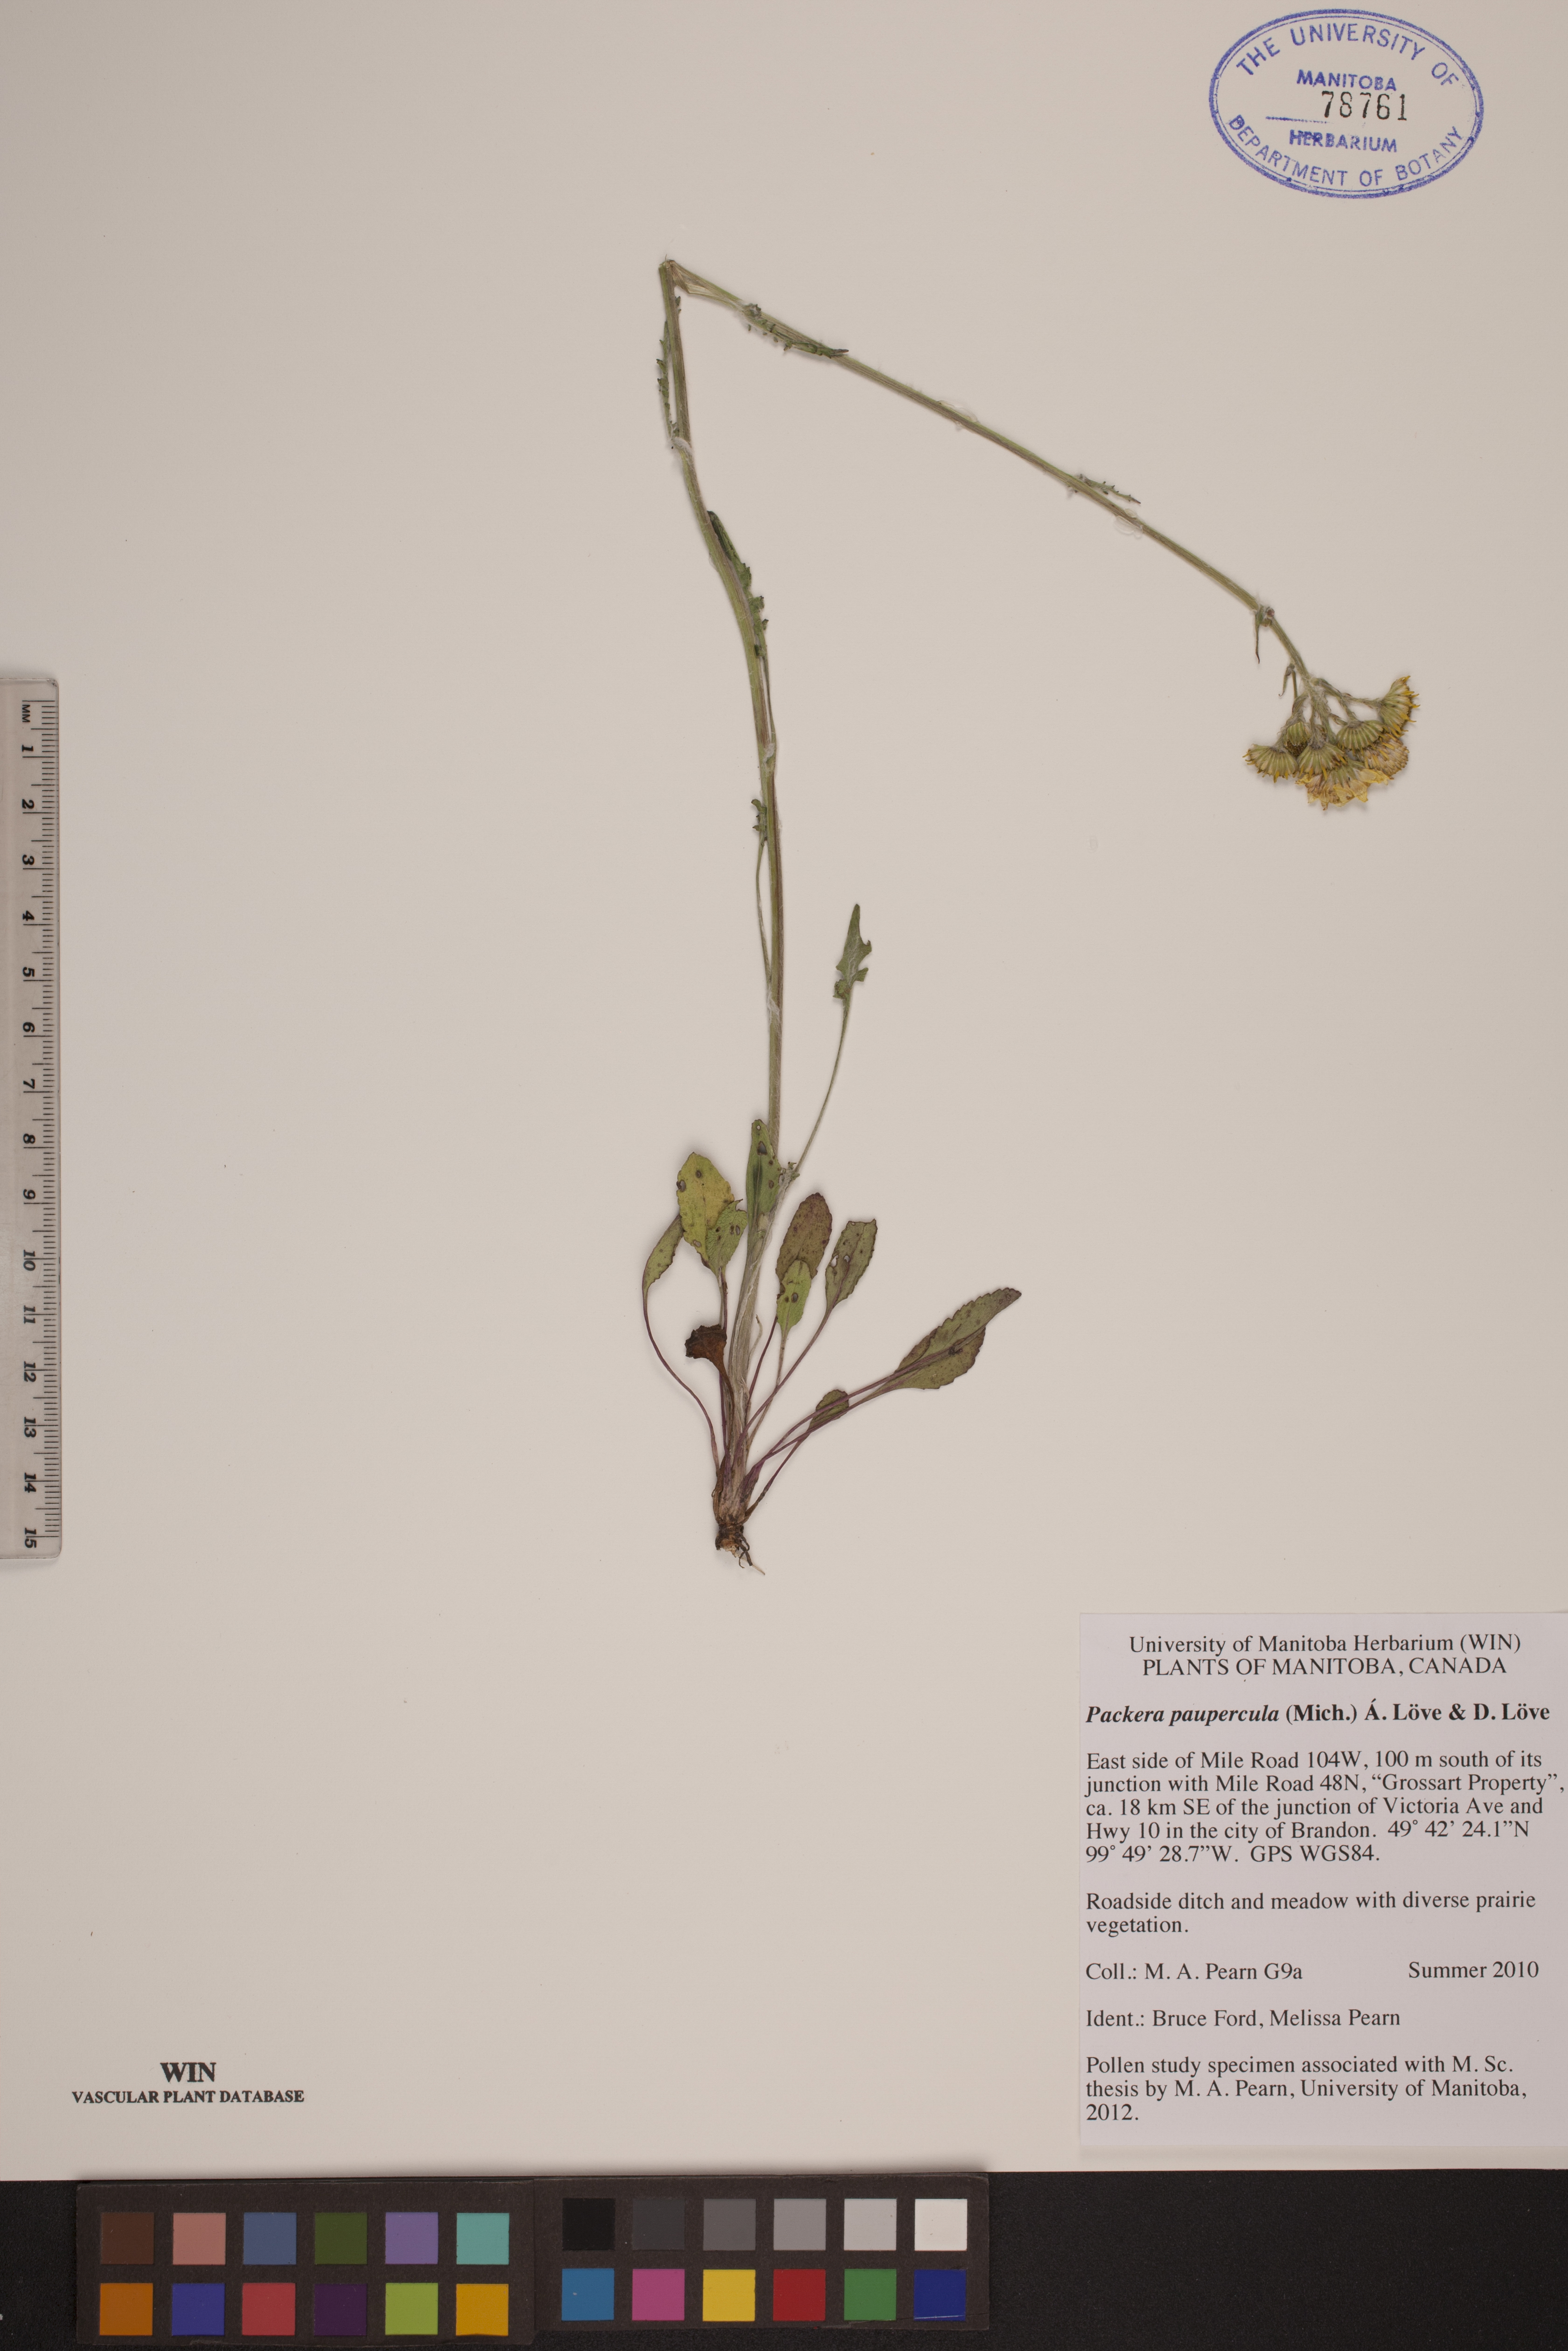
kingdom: Plantae
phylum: Tracheophyta
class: Magnoliopsida
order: Asterales
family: Asteraceae
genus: Packera
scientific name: Packera paupercula
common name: Balsam groundsel
